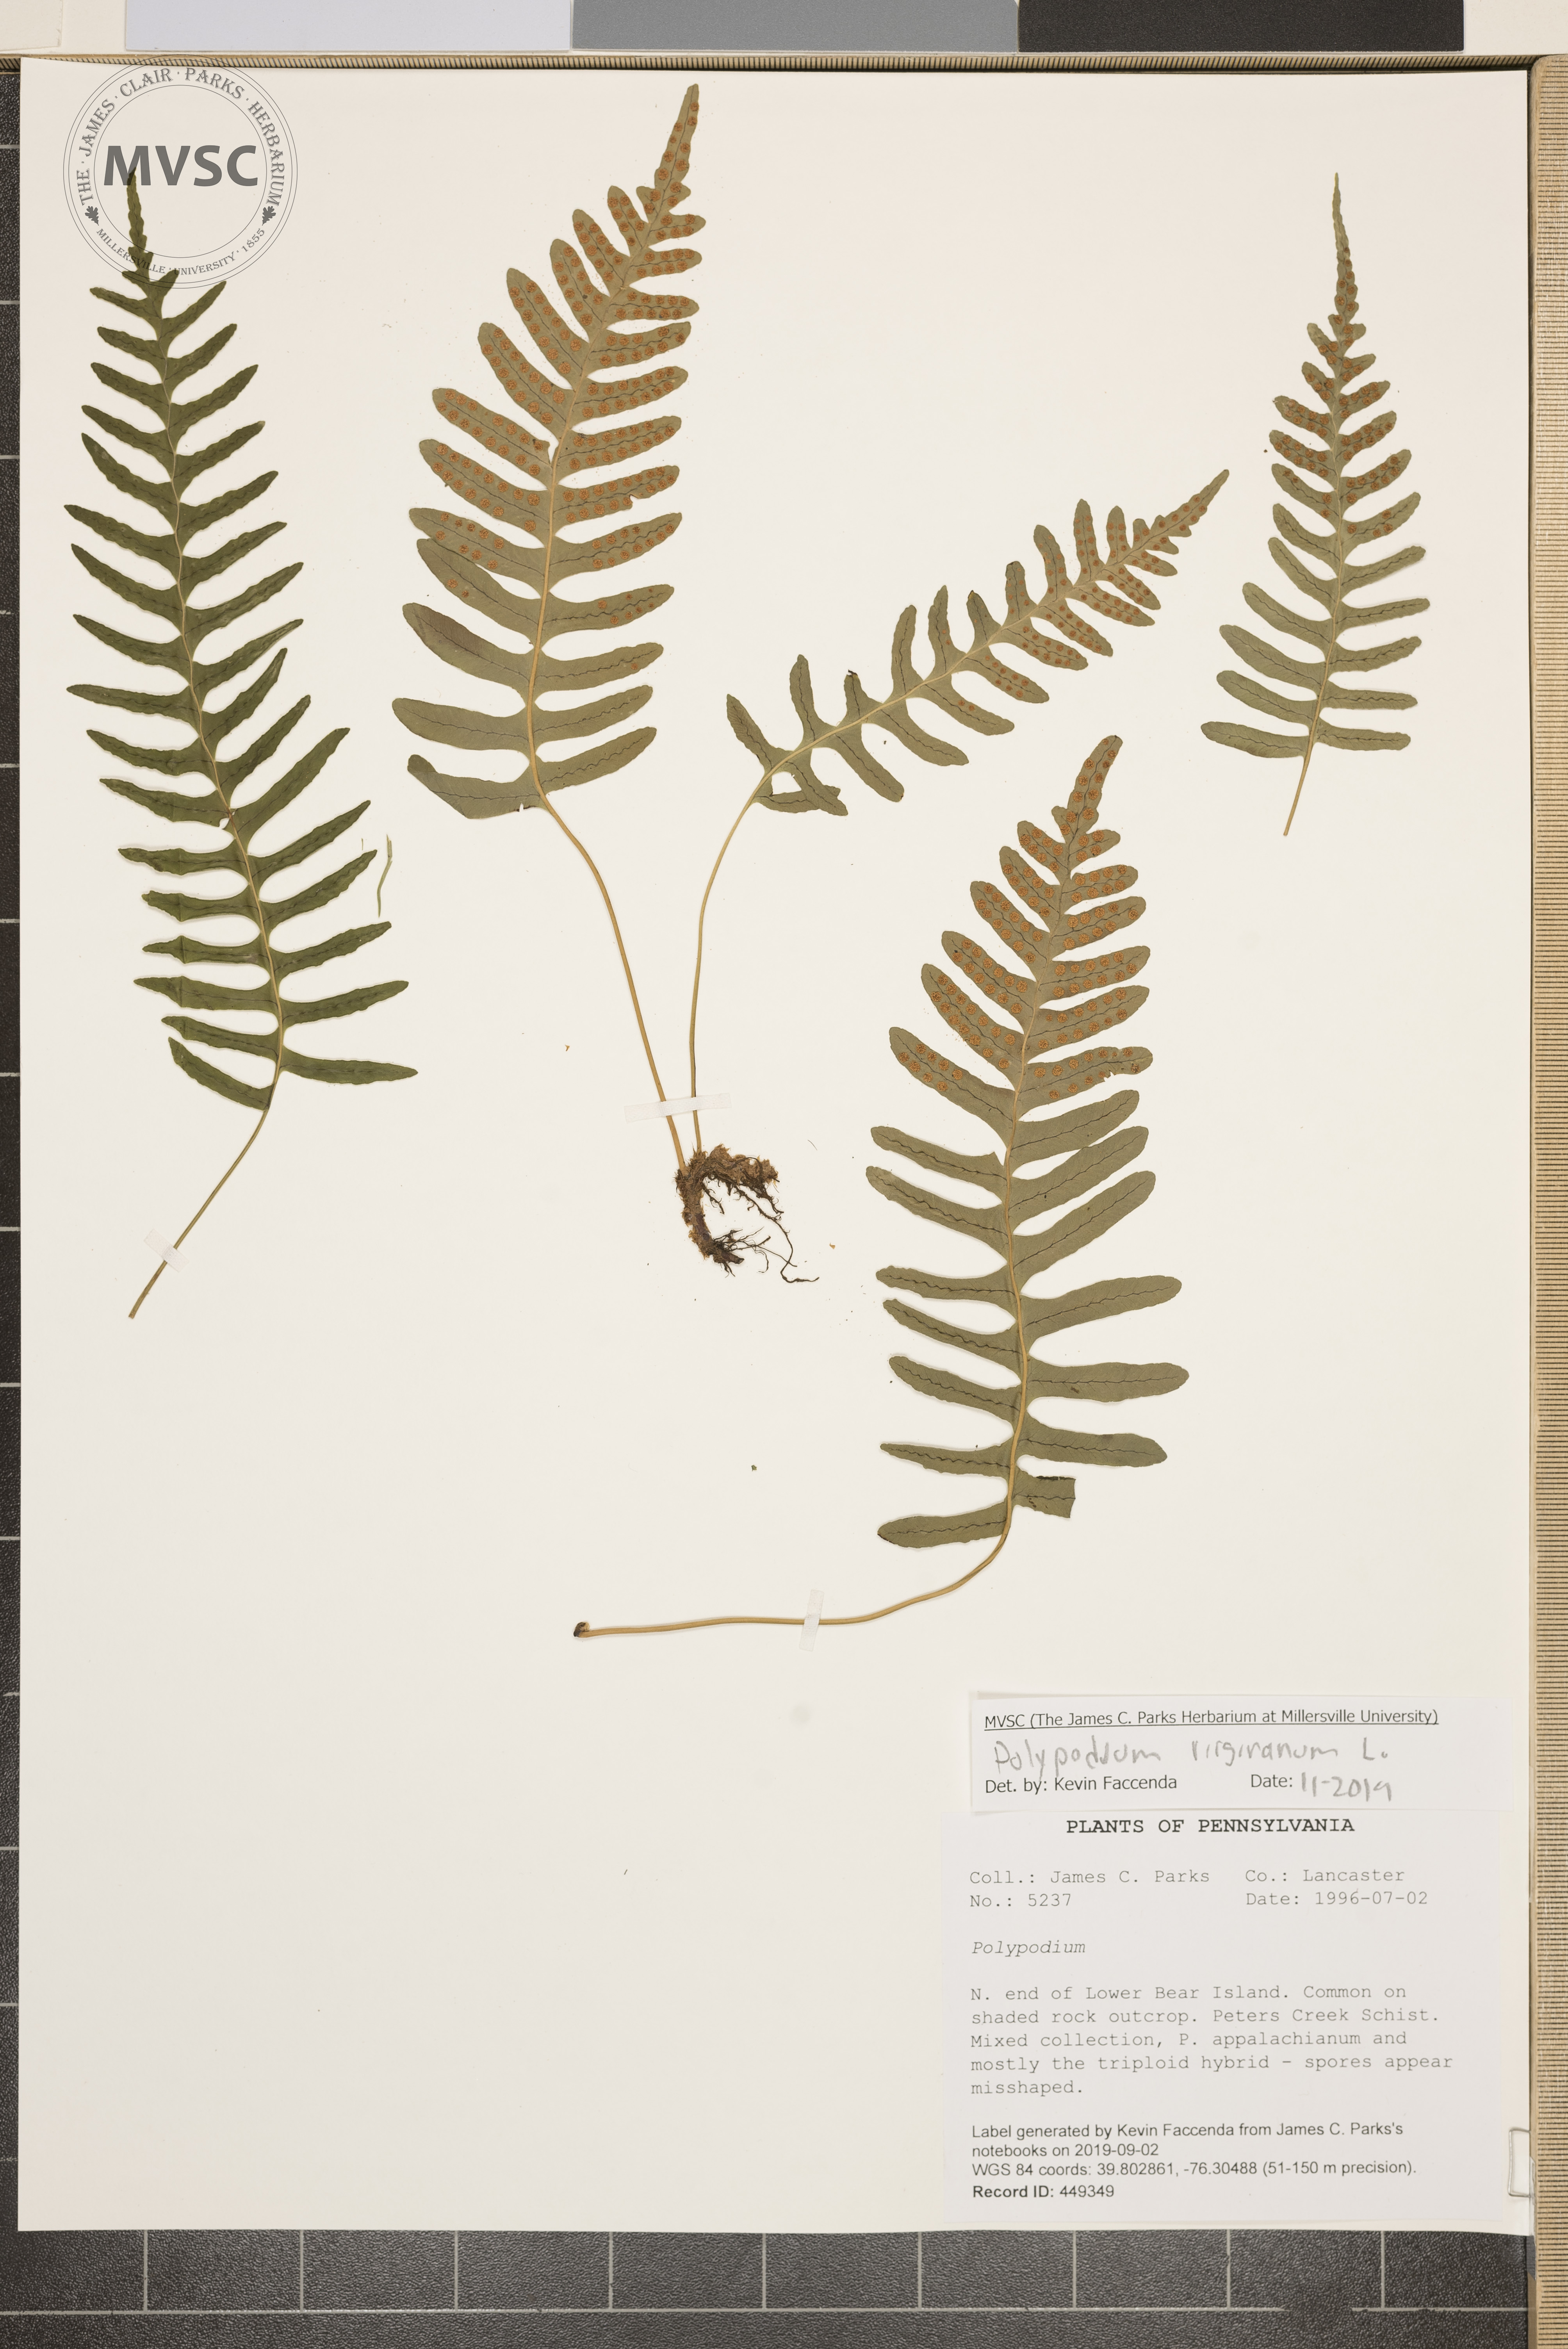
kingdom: Plantae
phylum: Tracheophyta
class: Polypodiopsida
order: Polypodiales
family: Polypodiaceae
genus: Polypodium
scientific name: Polypodium virginianum
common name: American wall fern
